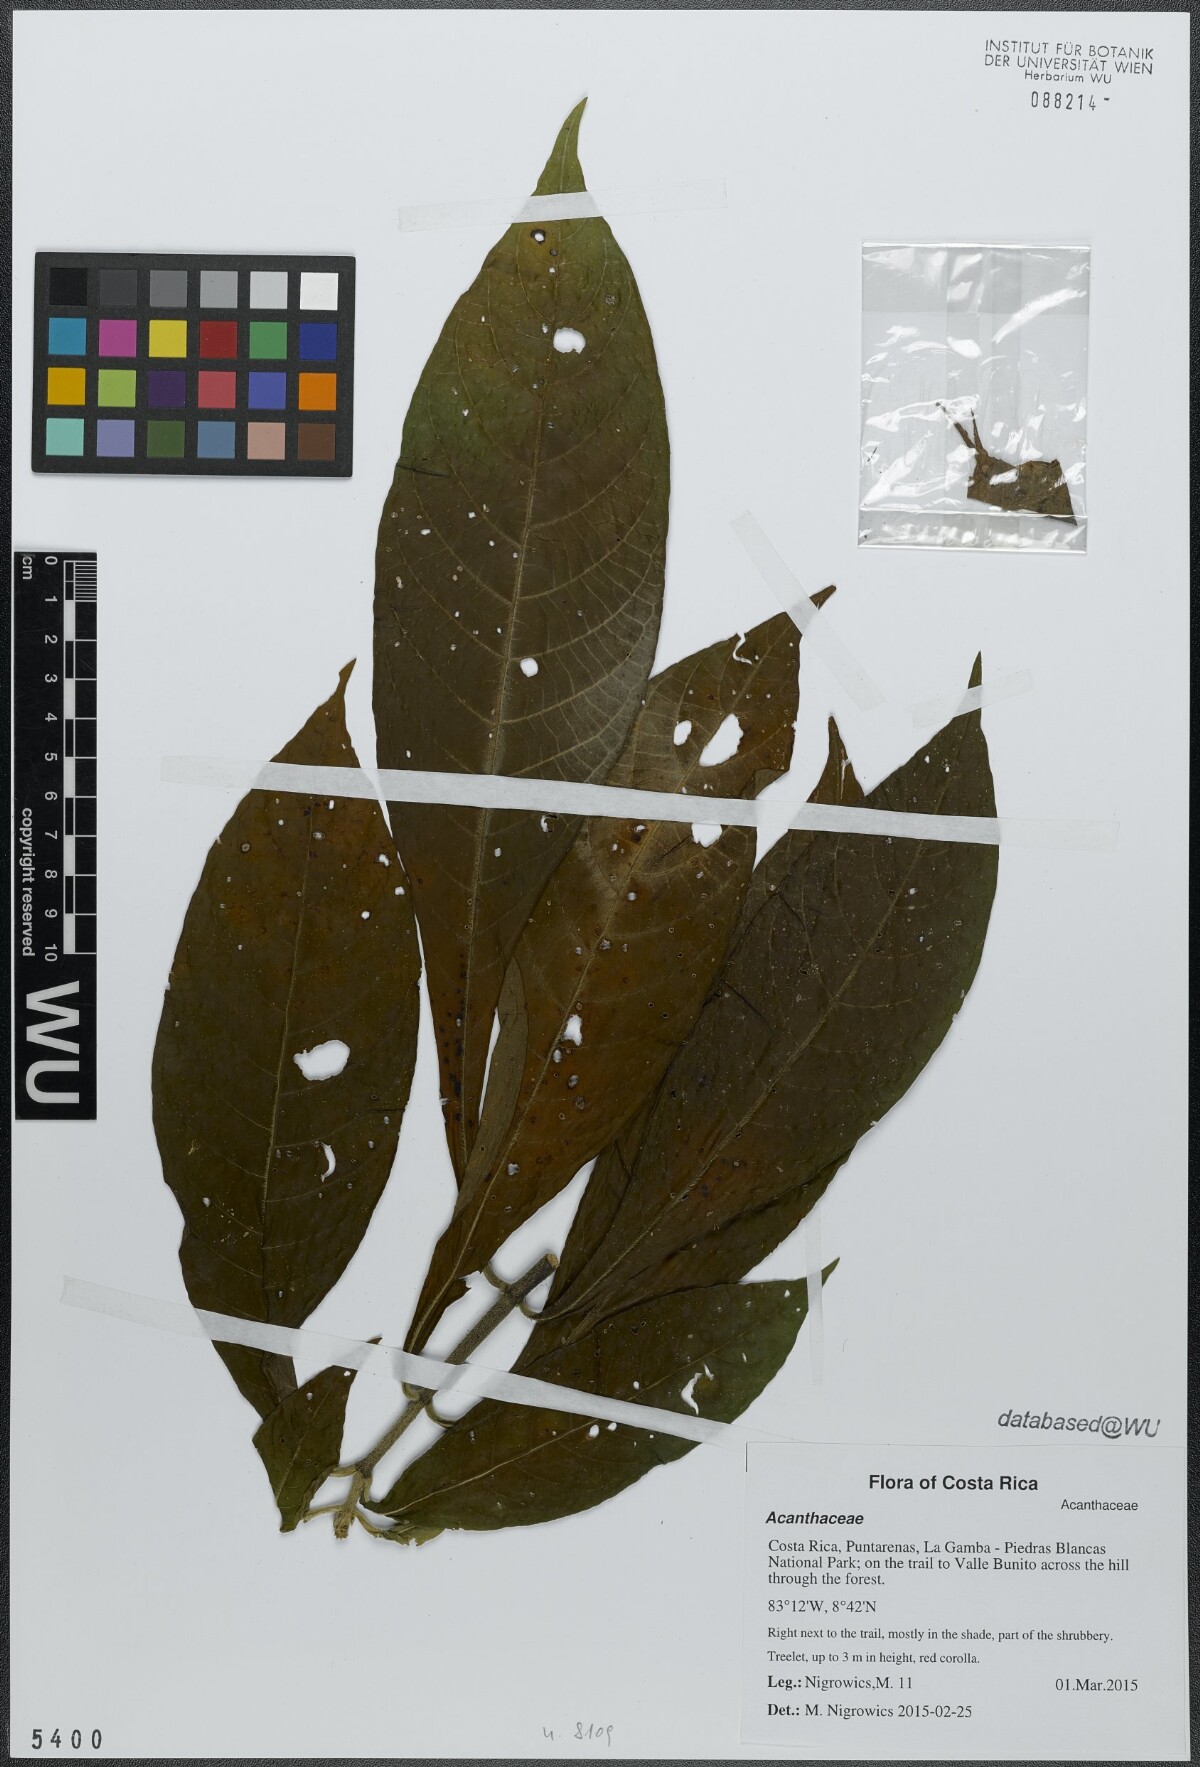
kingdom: Plantae
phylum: Tracheophyta
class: Magnoliopsida
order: Lamiales
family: Acanthaceae
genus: Aphelandra
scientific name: Aphelandra golfodulcensis
